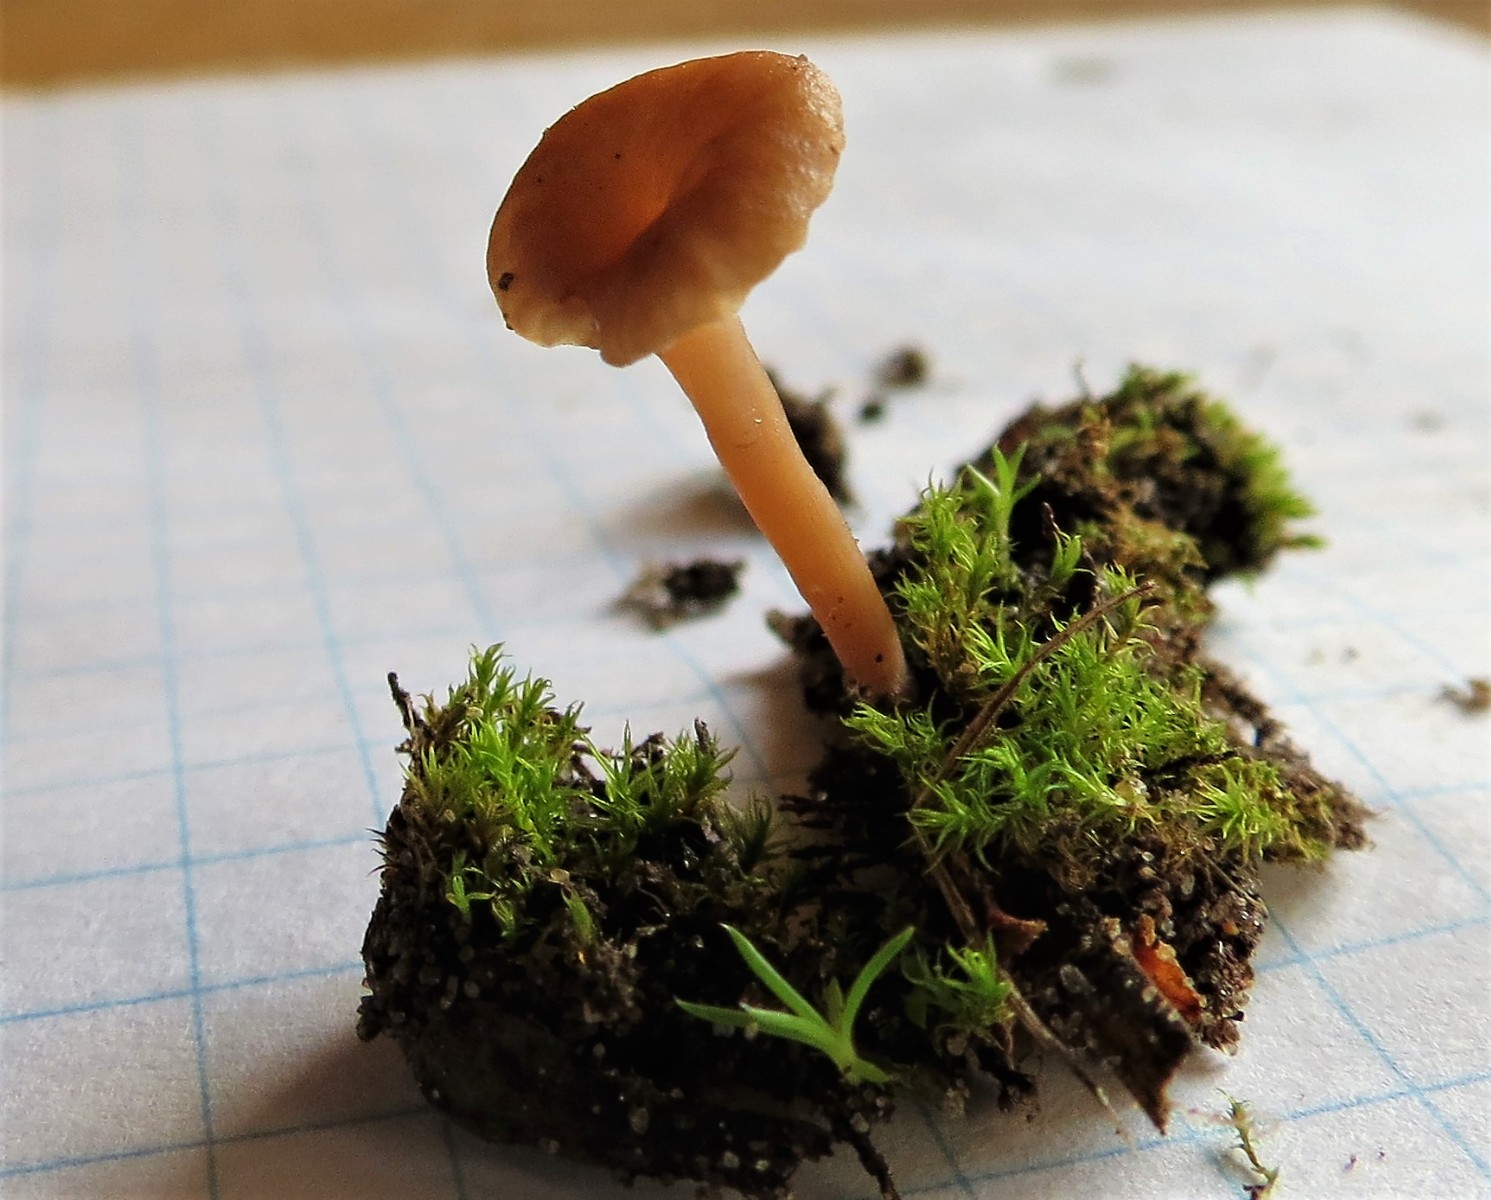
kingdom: Fungi
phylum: Basidiomycota
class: Agaricomycetes
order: Agaricales
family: Tricholomataceae
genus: Omphalina
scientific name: Omphalina pyxidata
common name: rødbrun navlehat
